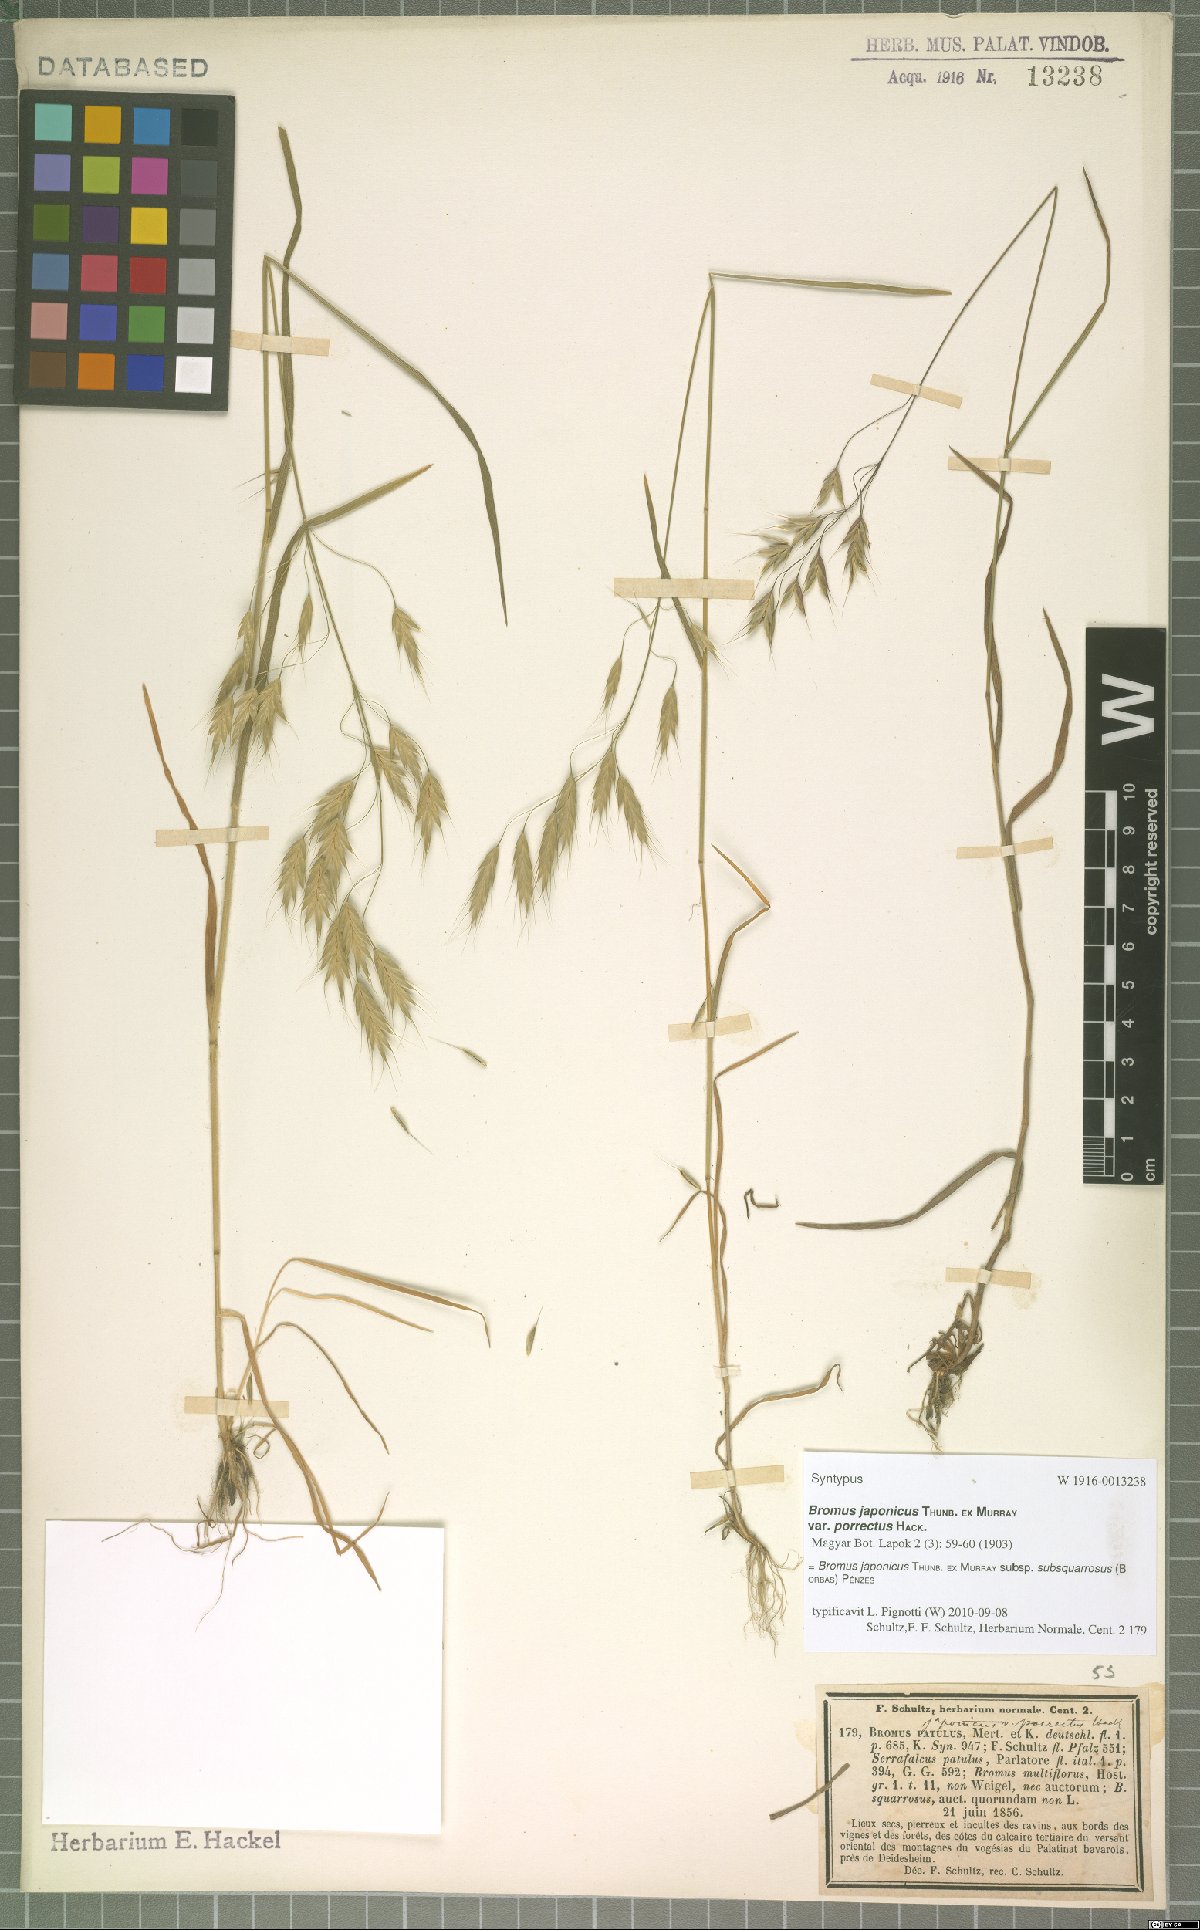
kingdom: Plantae
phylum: Tracheophyta
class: Liliopsida
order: Poales
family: Poaceae
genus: Bromus
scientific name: Bromus japonicus
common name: Japanese brome
